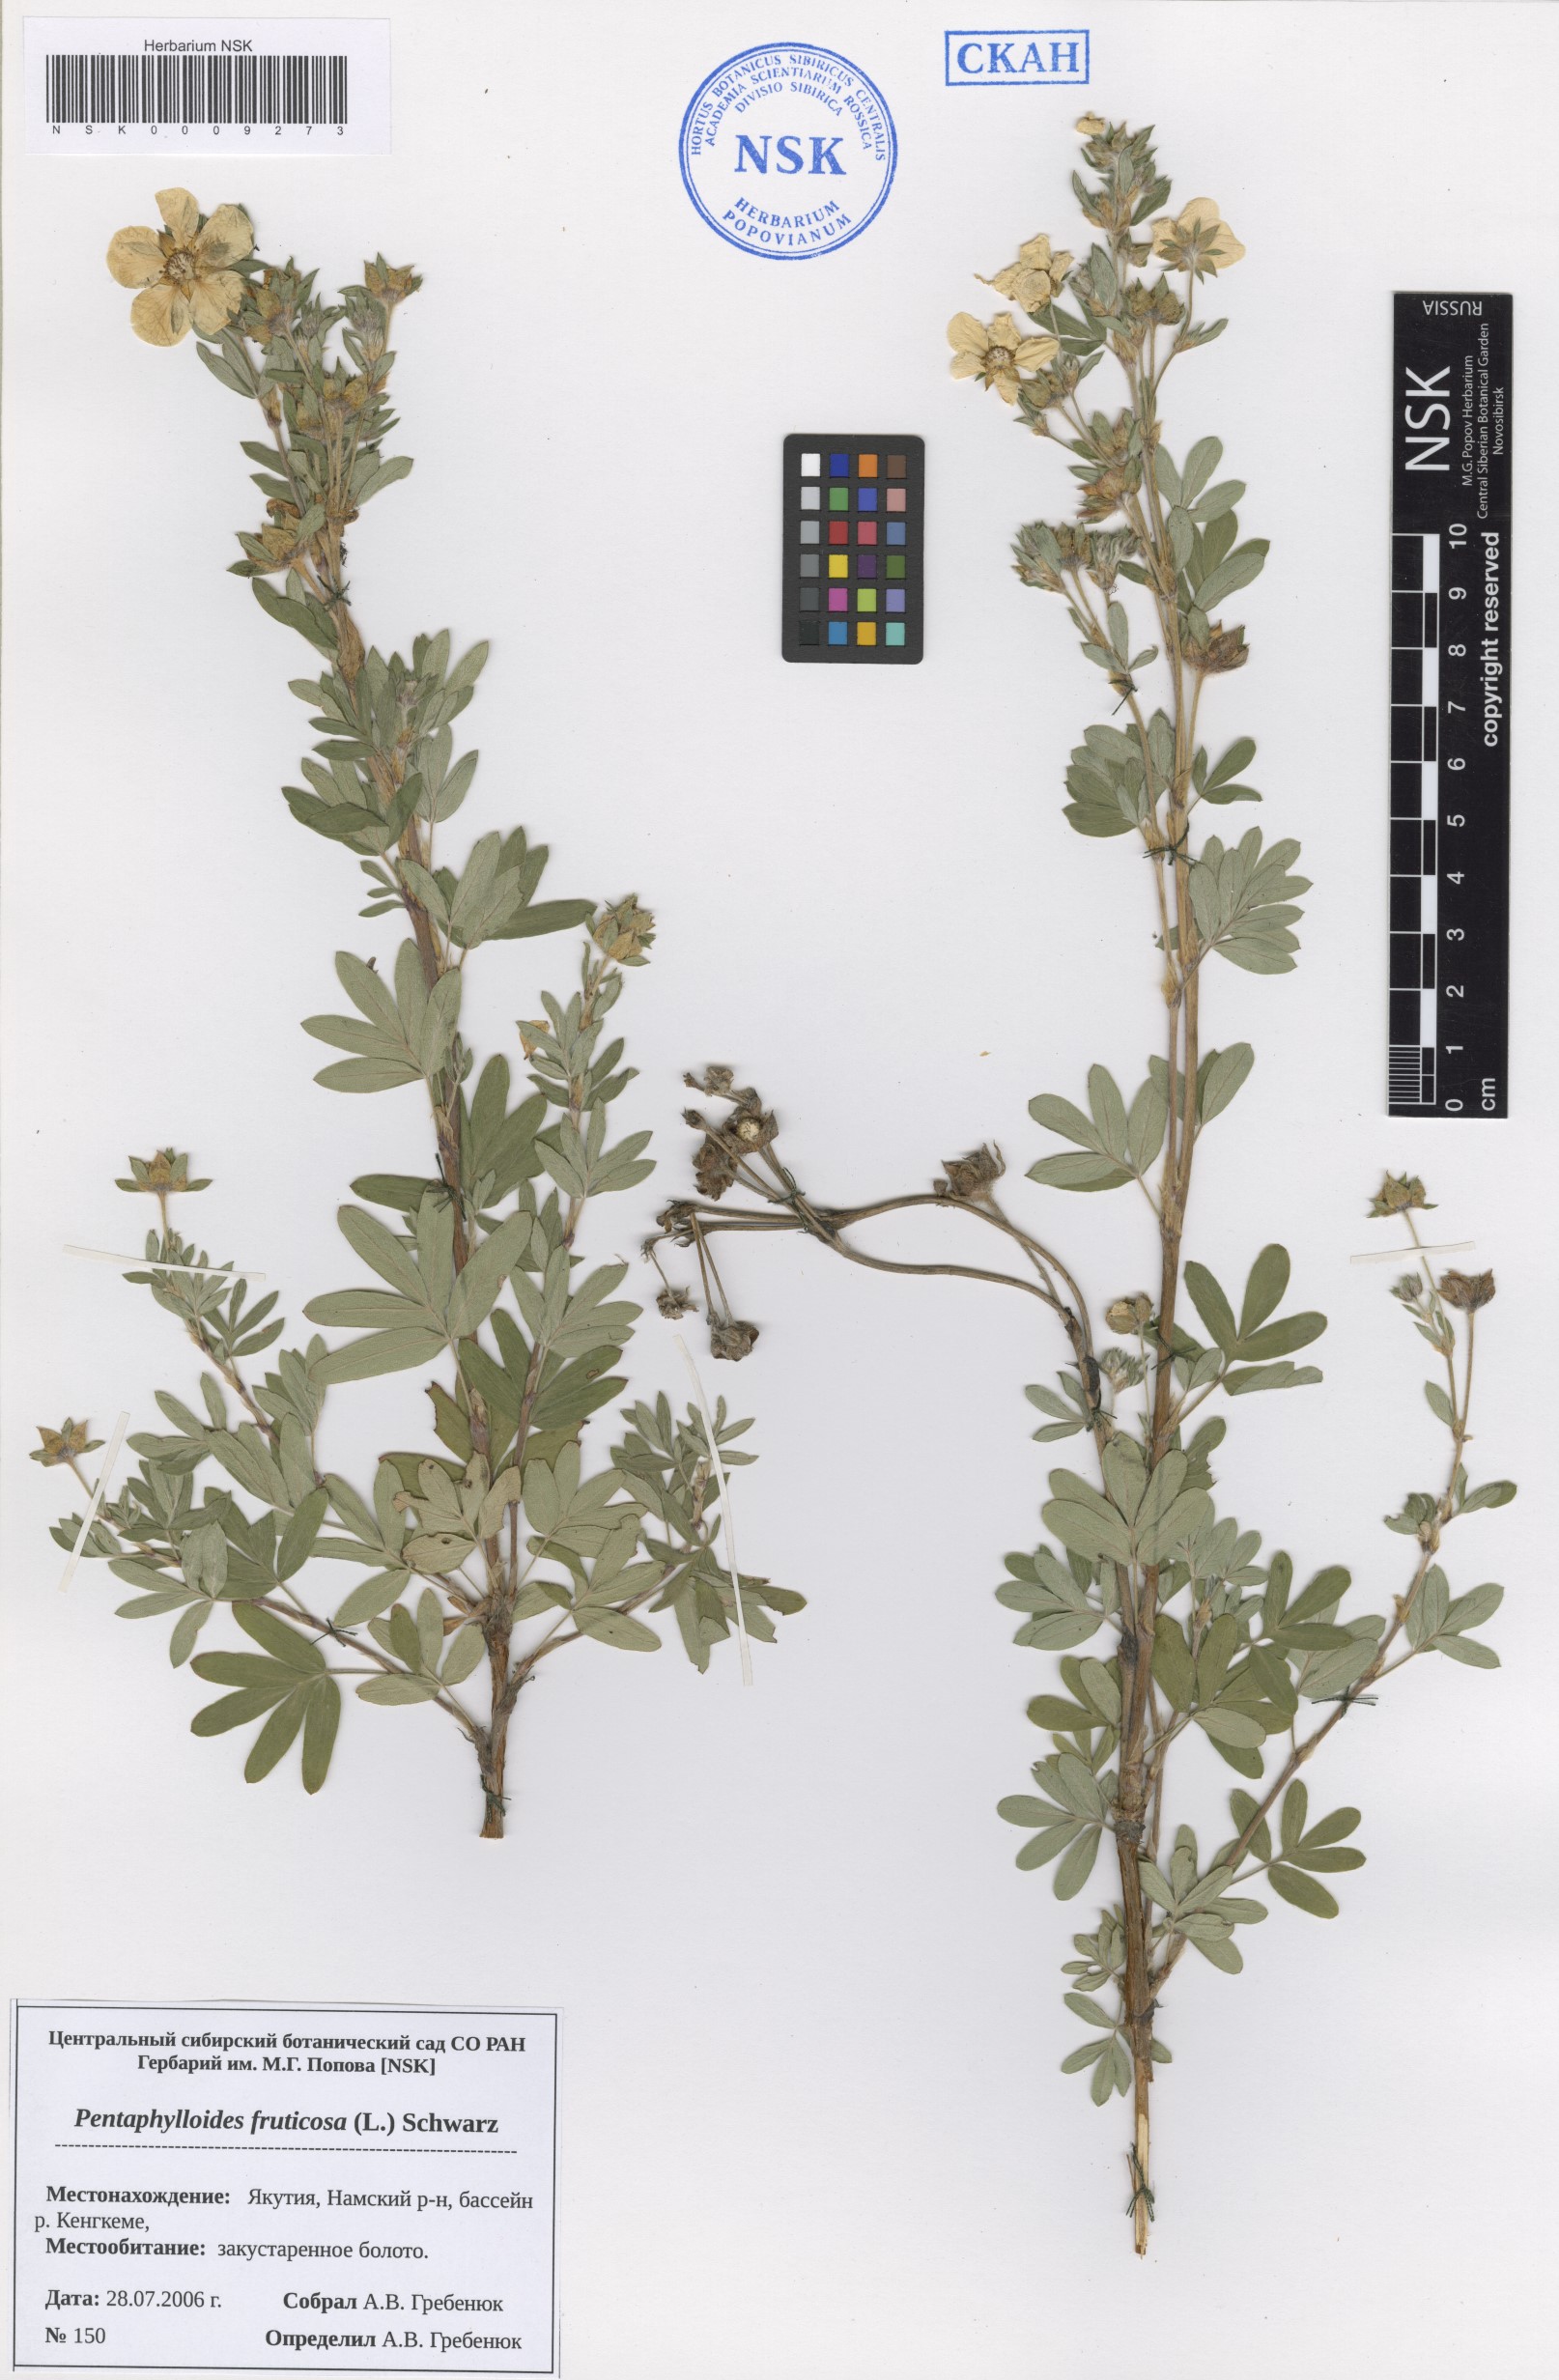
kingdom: Plantae
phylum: Tracheophyta
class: Magnoliopsida
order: Rosales
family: Rosaceae
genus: Dasiphora
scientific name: Dasiphora fruticosa
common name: Shrubby cinquefoil
